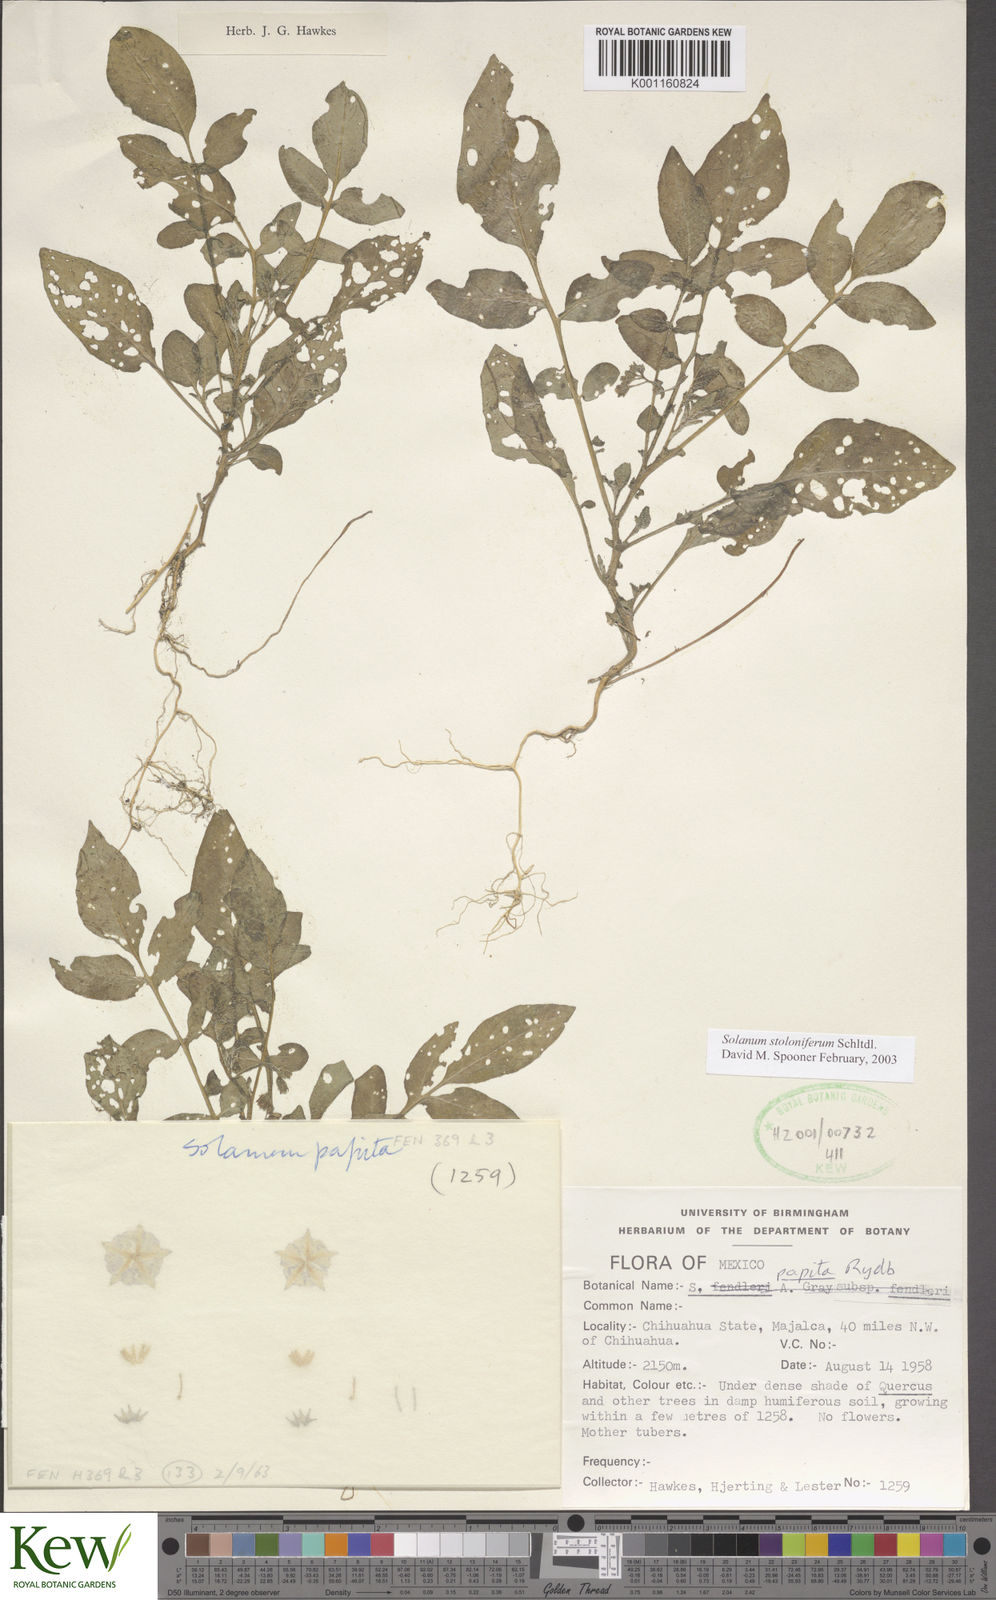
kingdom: Plantae
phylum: Tracheophyta
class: Magnoliopsida
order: Solanales
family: Solanaceae
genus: Solanum
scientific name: Solanum stoloniferum
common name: Fendler's nighshade
